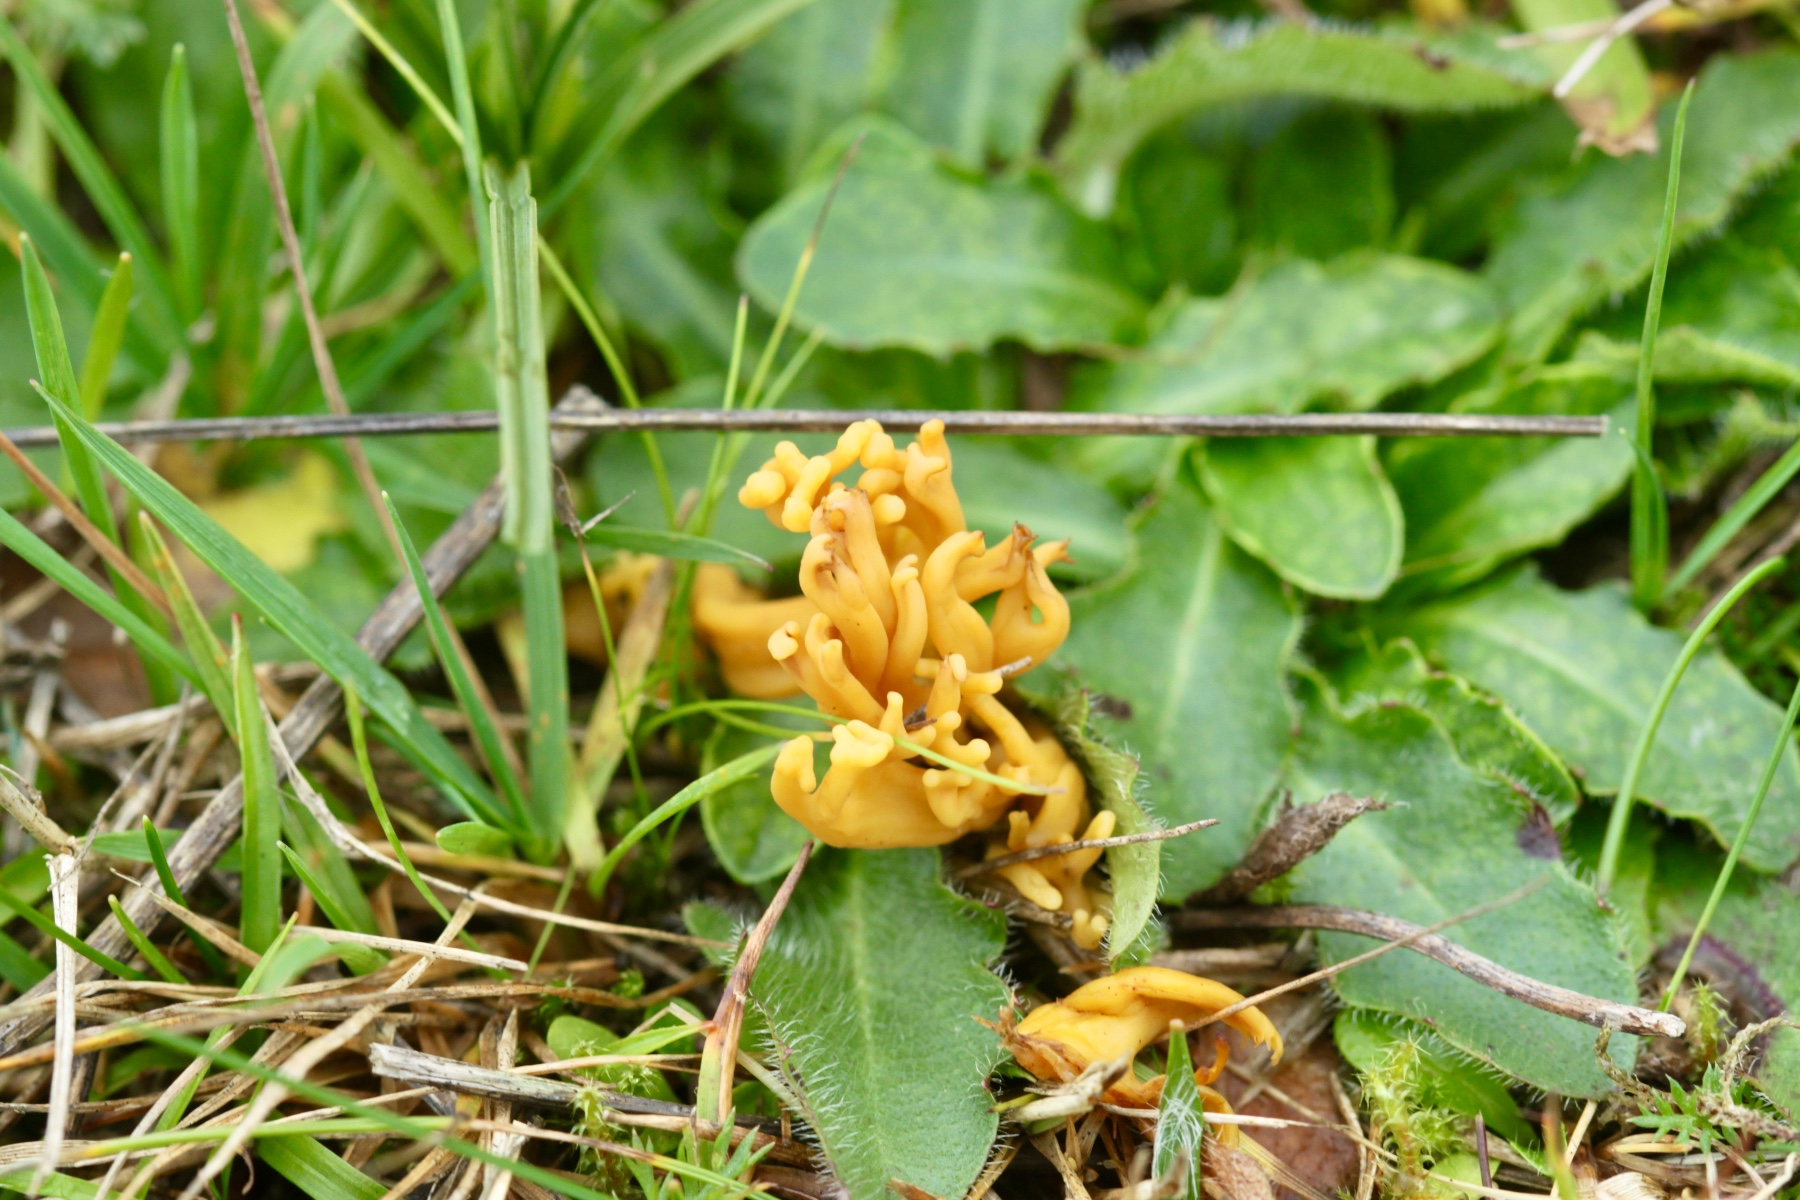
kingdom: Fungi
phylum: Basidiomycota
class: Agaricomycetes
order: Agaricales
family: Clavariaceae
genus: Clavulinopsis
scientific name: Clavulinopsis corniculata
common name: eng-køllesvamp
